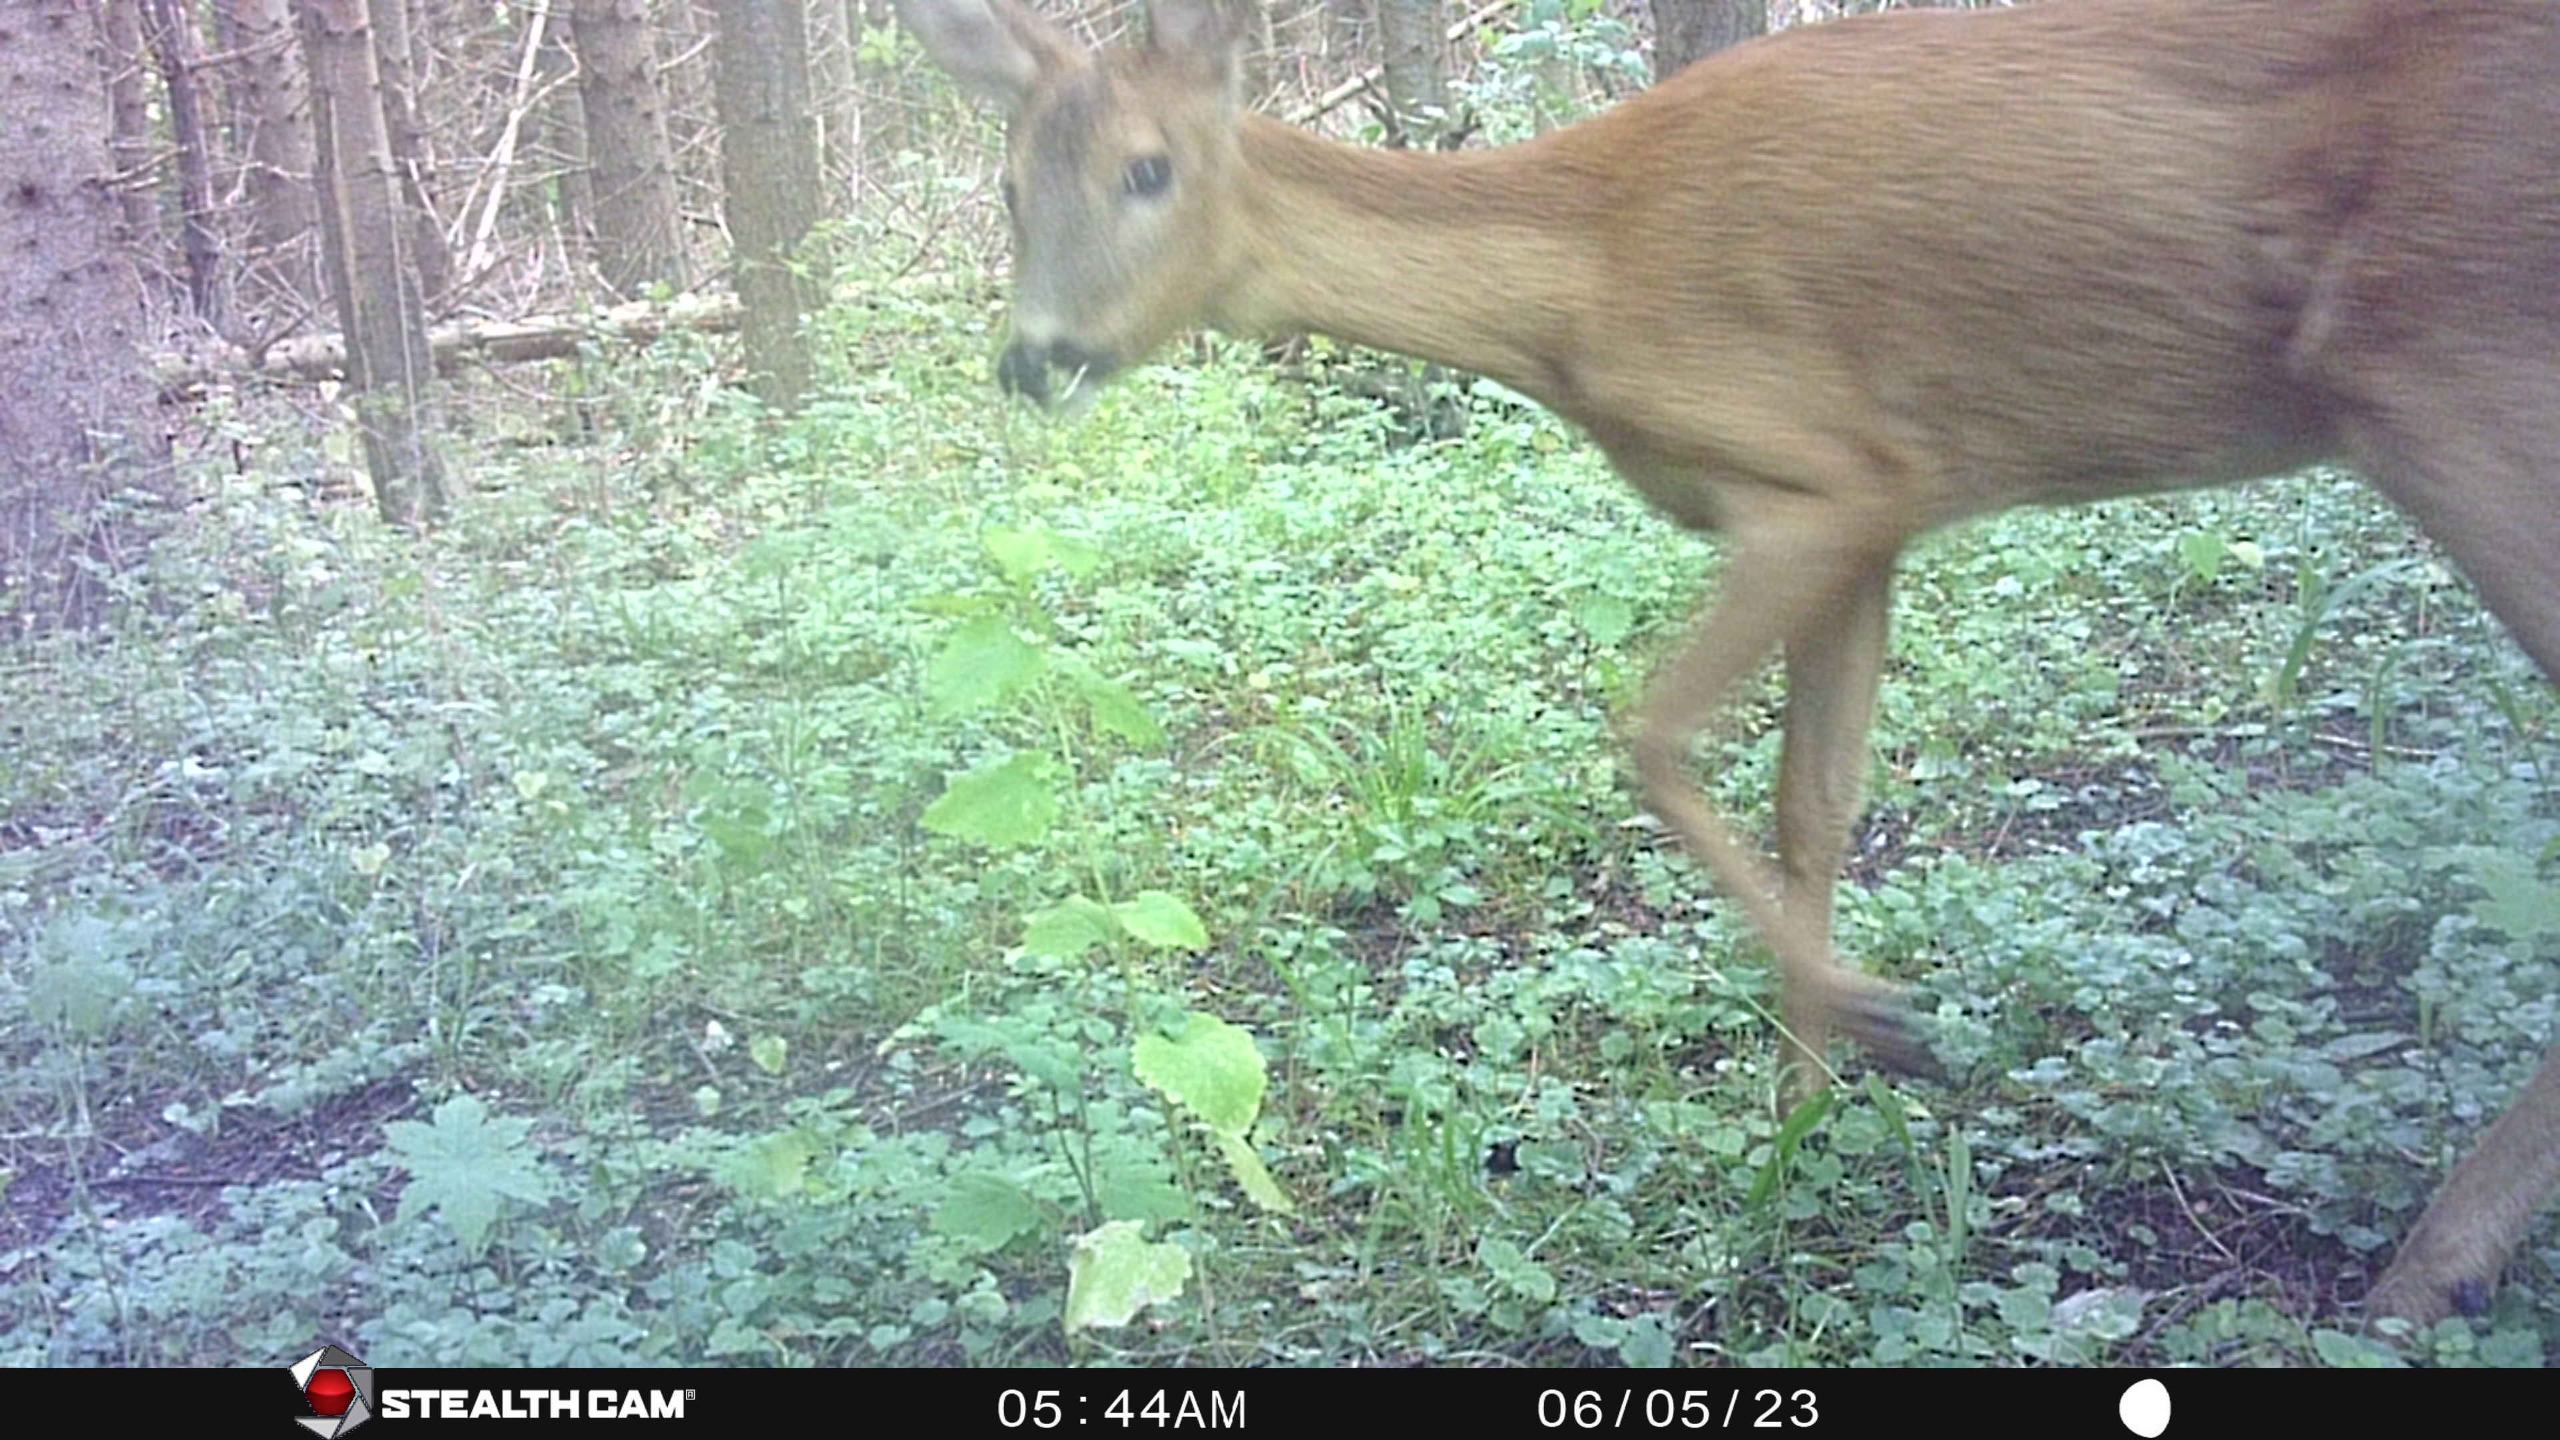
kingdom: Animalia
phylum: Chordata
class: Mammalia
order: Artiodactyla
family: Cervidae
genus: Capreolus
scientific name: Capreolus capreolus
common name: Rådyr
